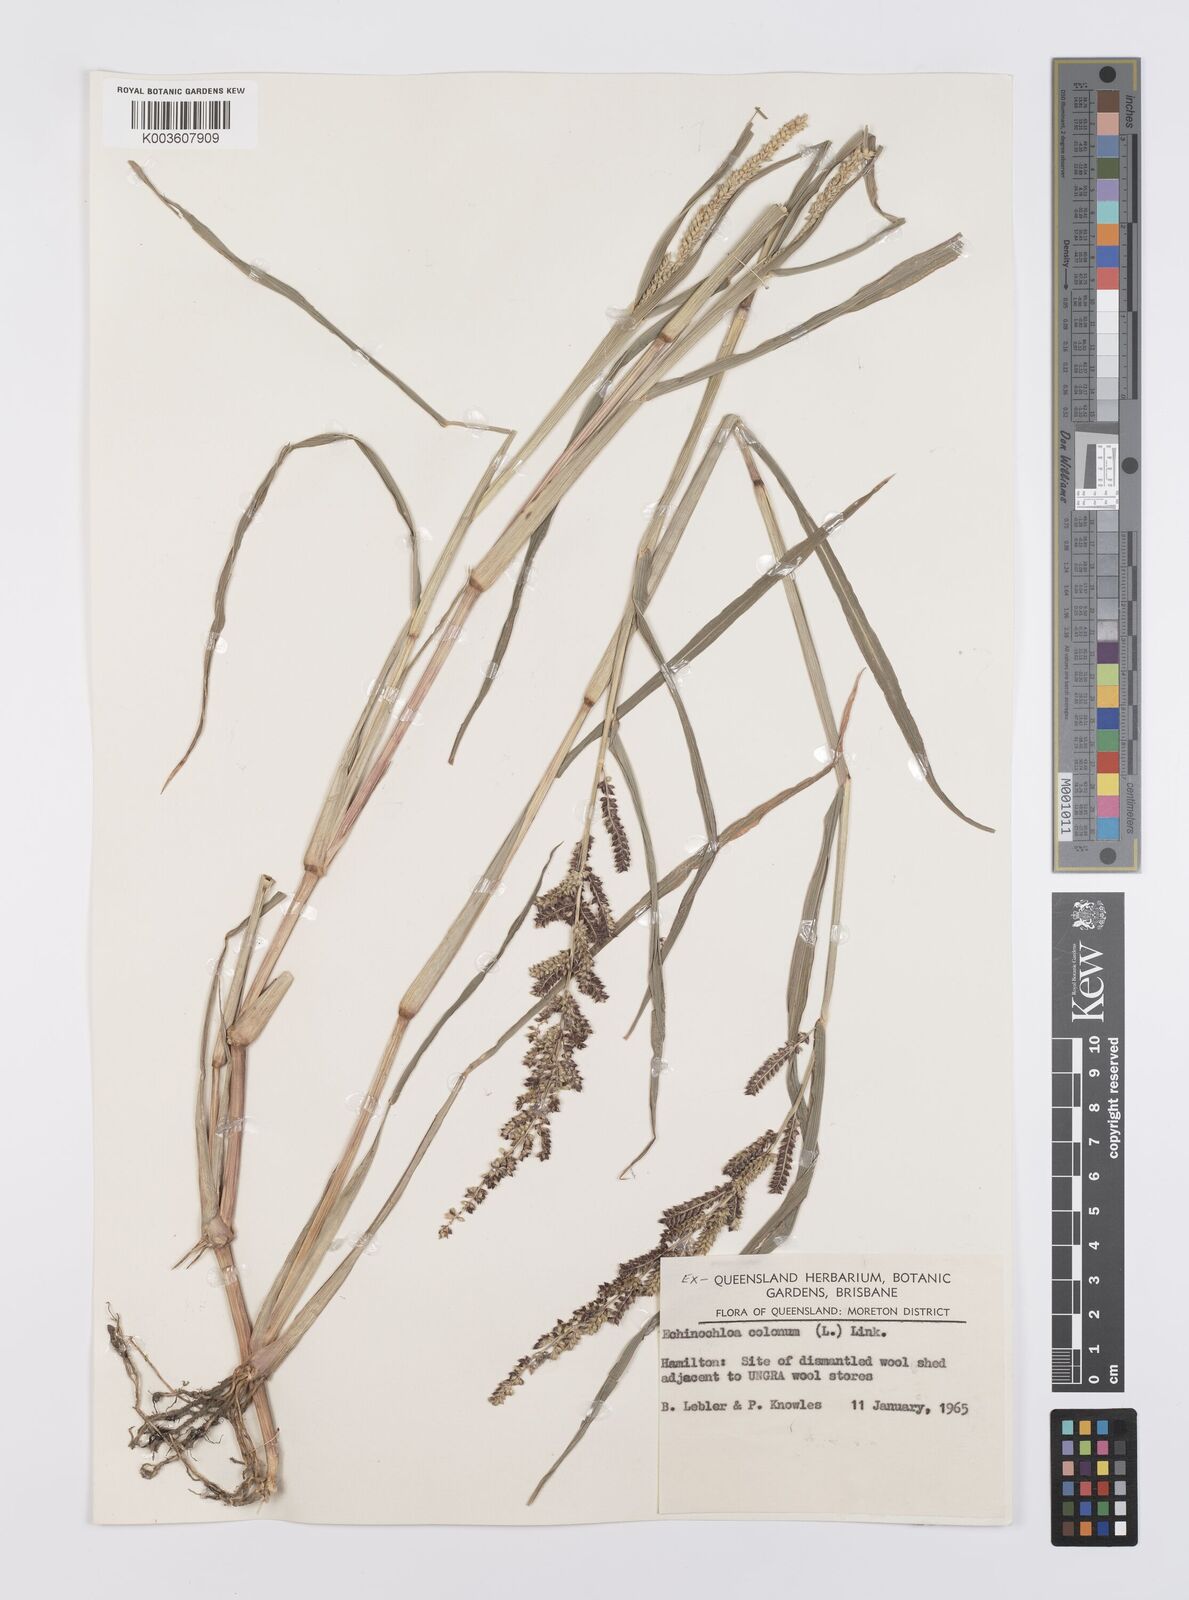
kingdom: Plantae
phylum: Tracheophyta
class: Liliopsida
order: Poales
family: Poaceae
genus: Echinochloa
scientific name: Echinochloa colonum
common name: Jungle rice
